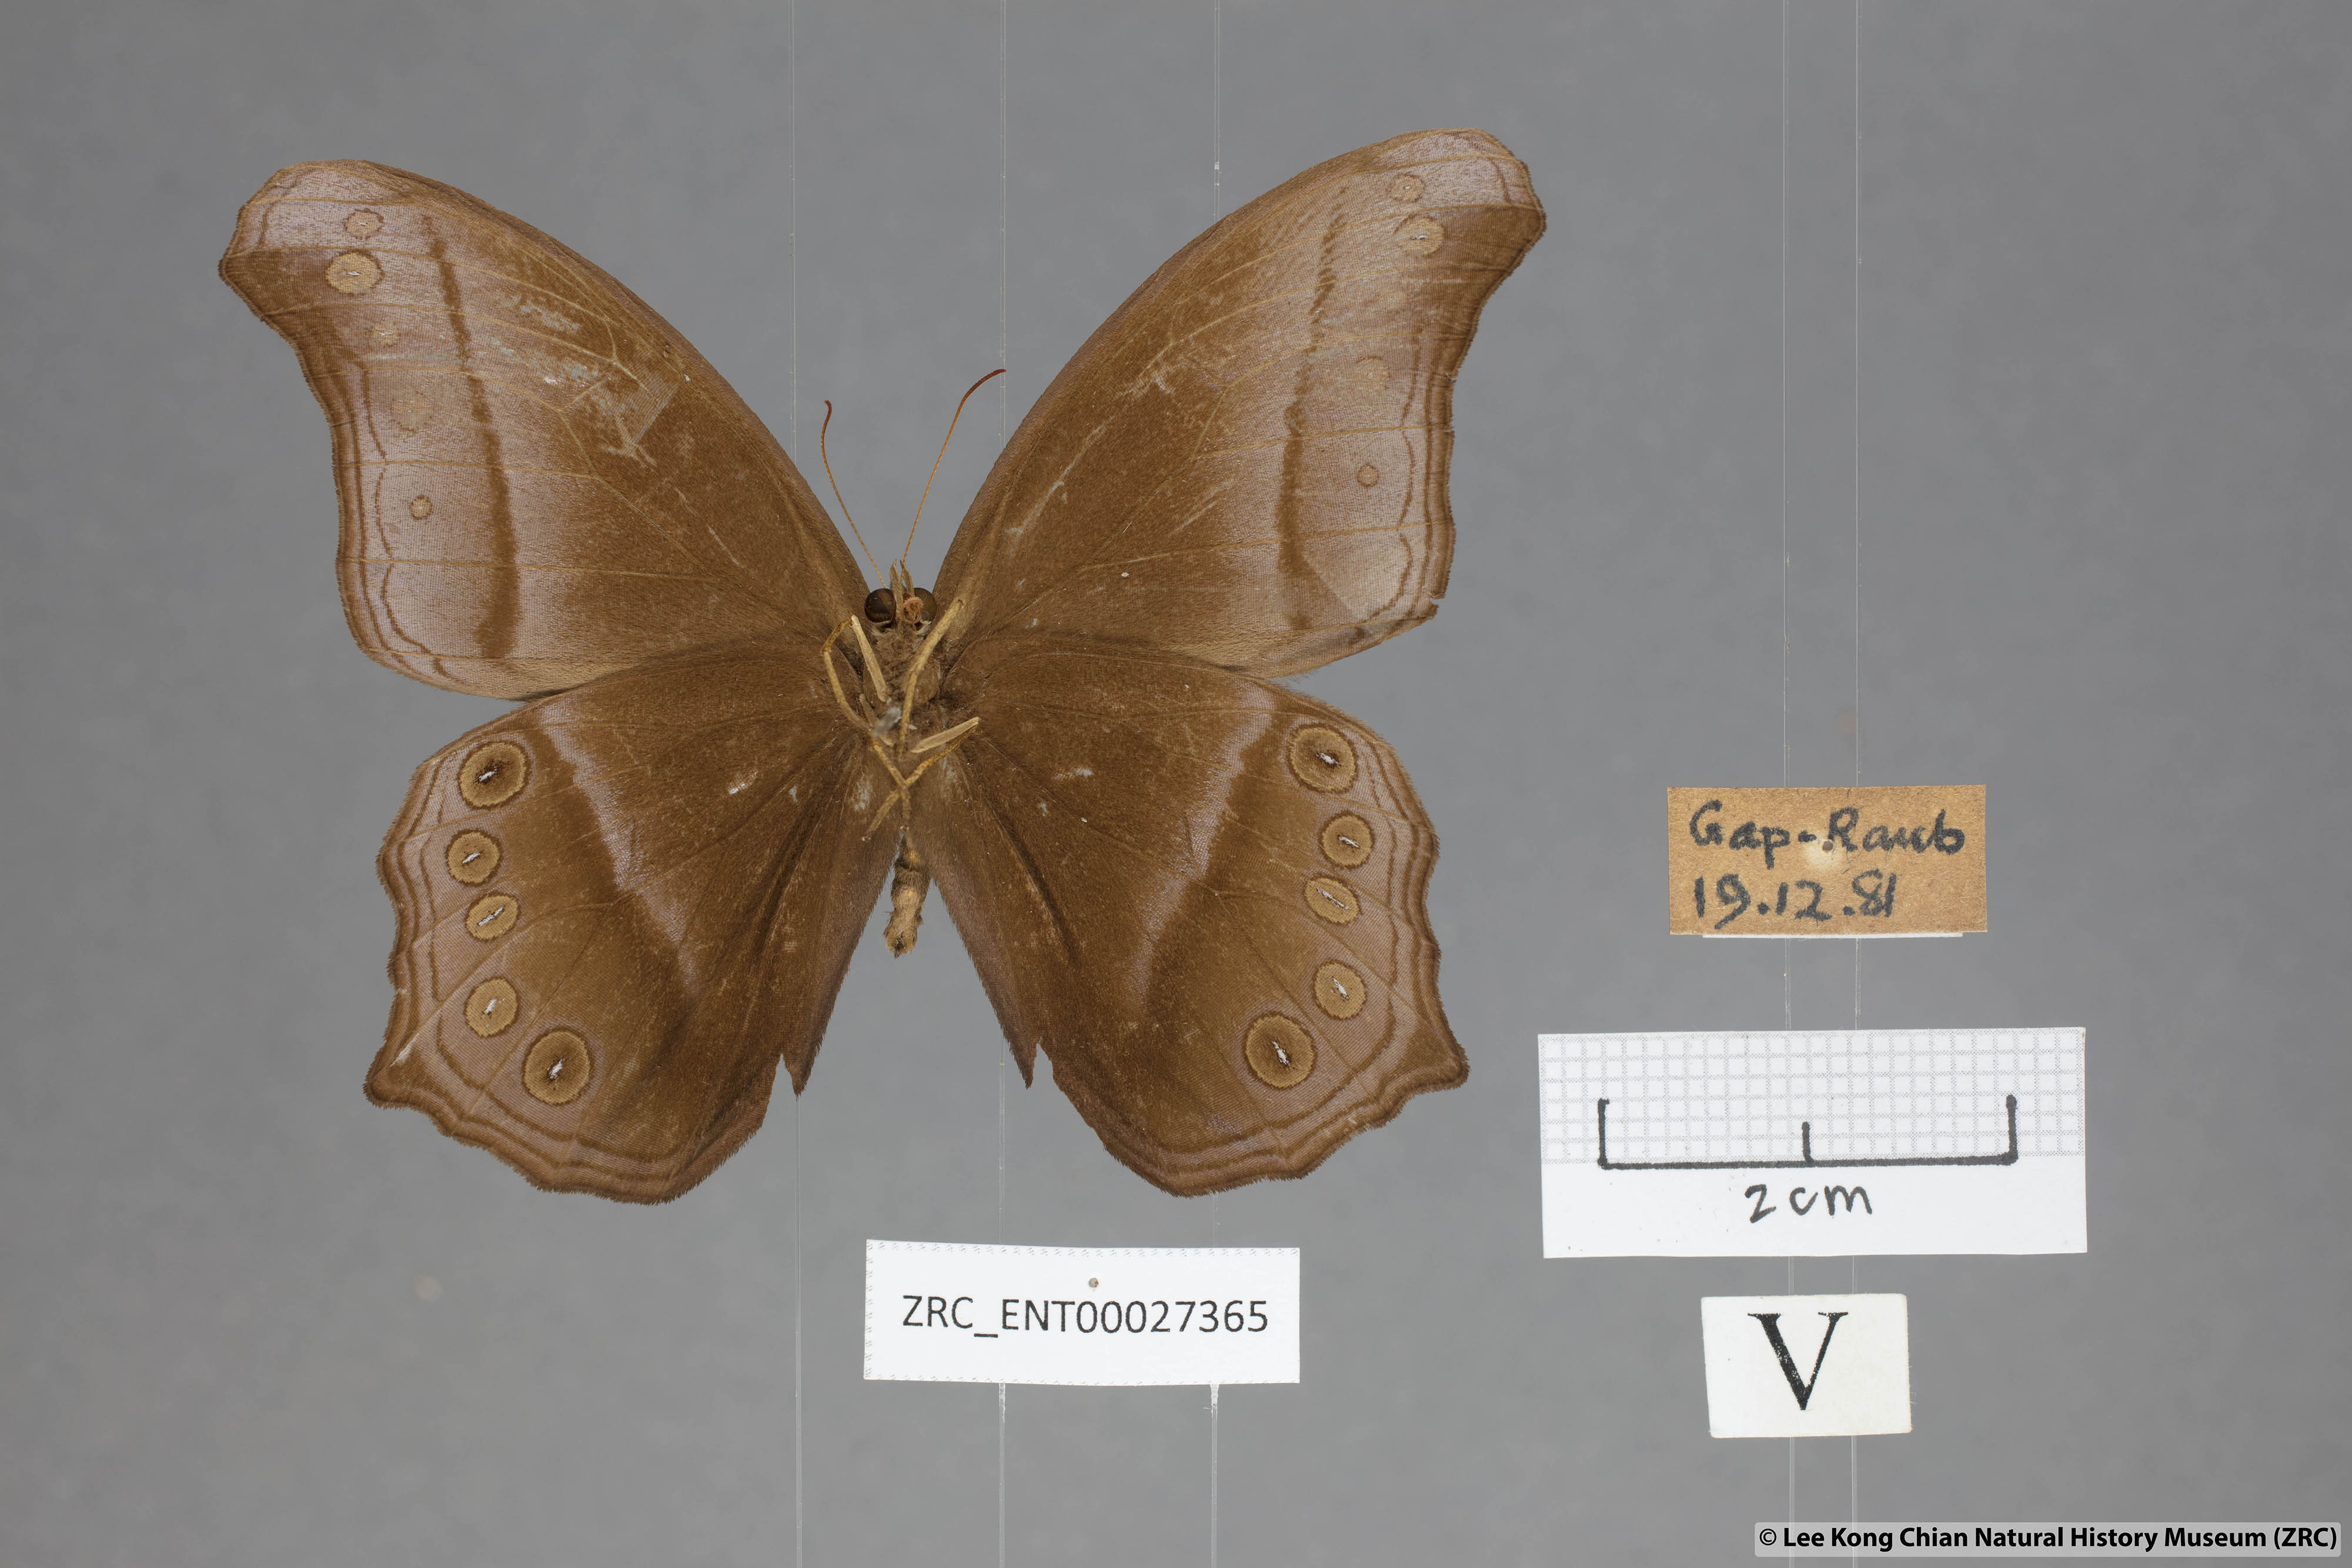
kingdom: Animalia
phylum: Arthropoda
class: Insecta
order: Lepidoptera
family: Nymphalidae
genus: Coelites
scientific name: Coelites epiminthia
